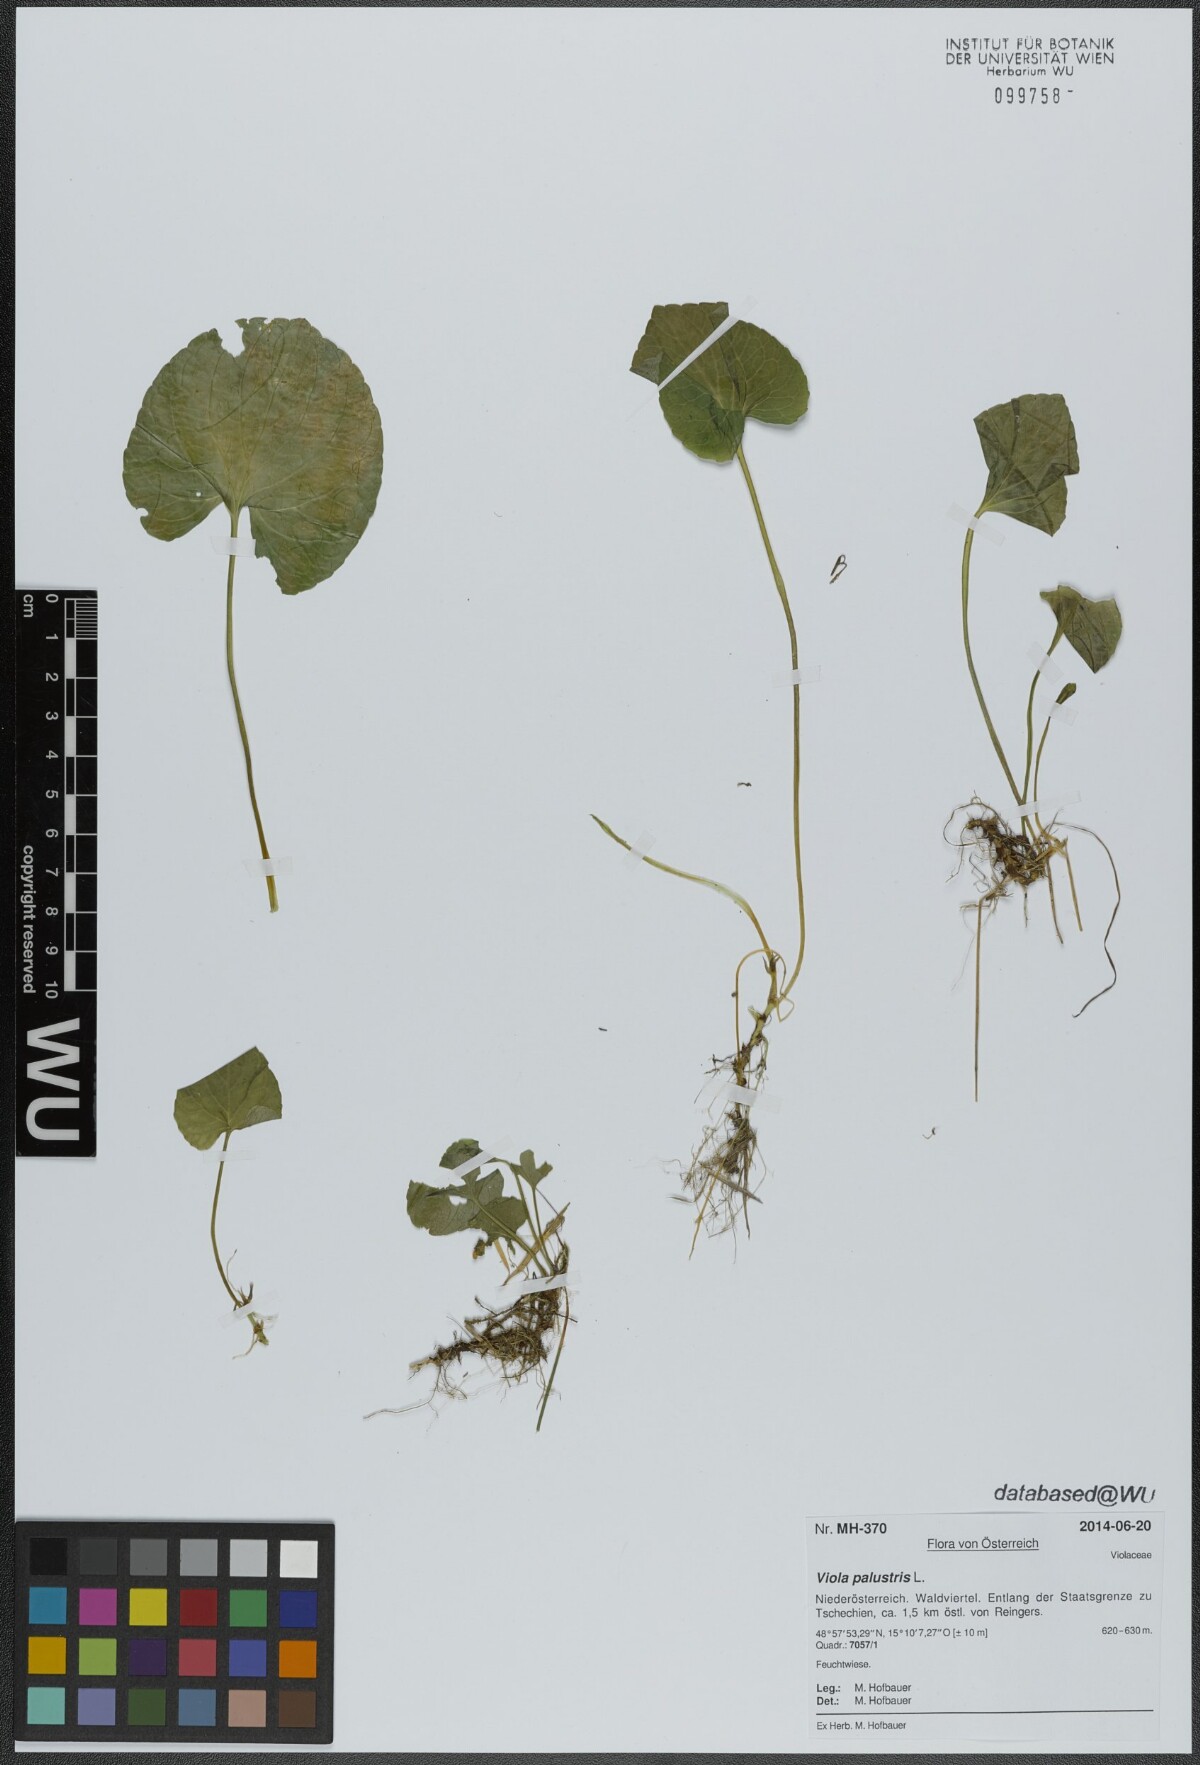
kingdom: Plantae
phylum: Tracheophyta
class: Magnoliopsida
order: Malpighiales
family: Violaceae
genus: Viola
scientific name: Viola palustris
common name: Marsh violet
